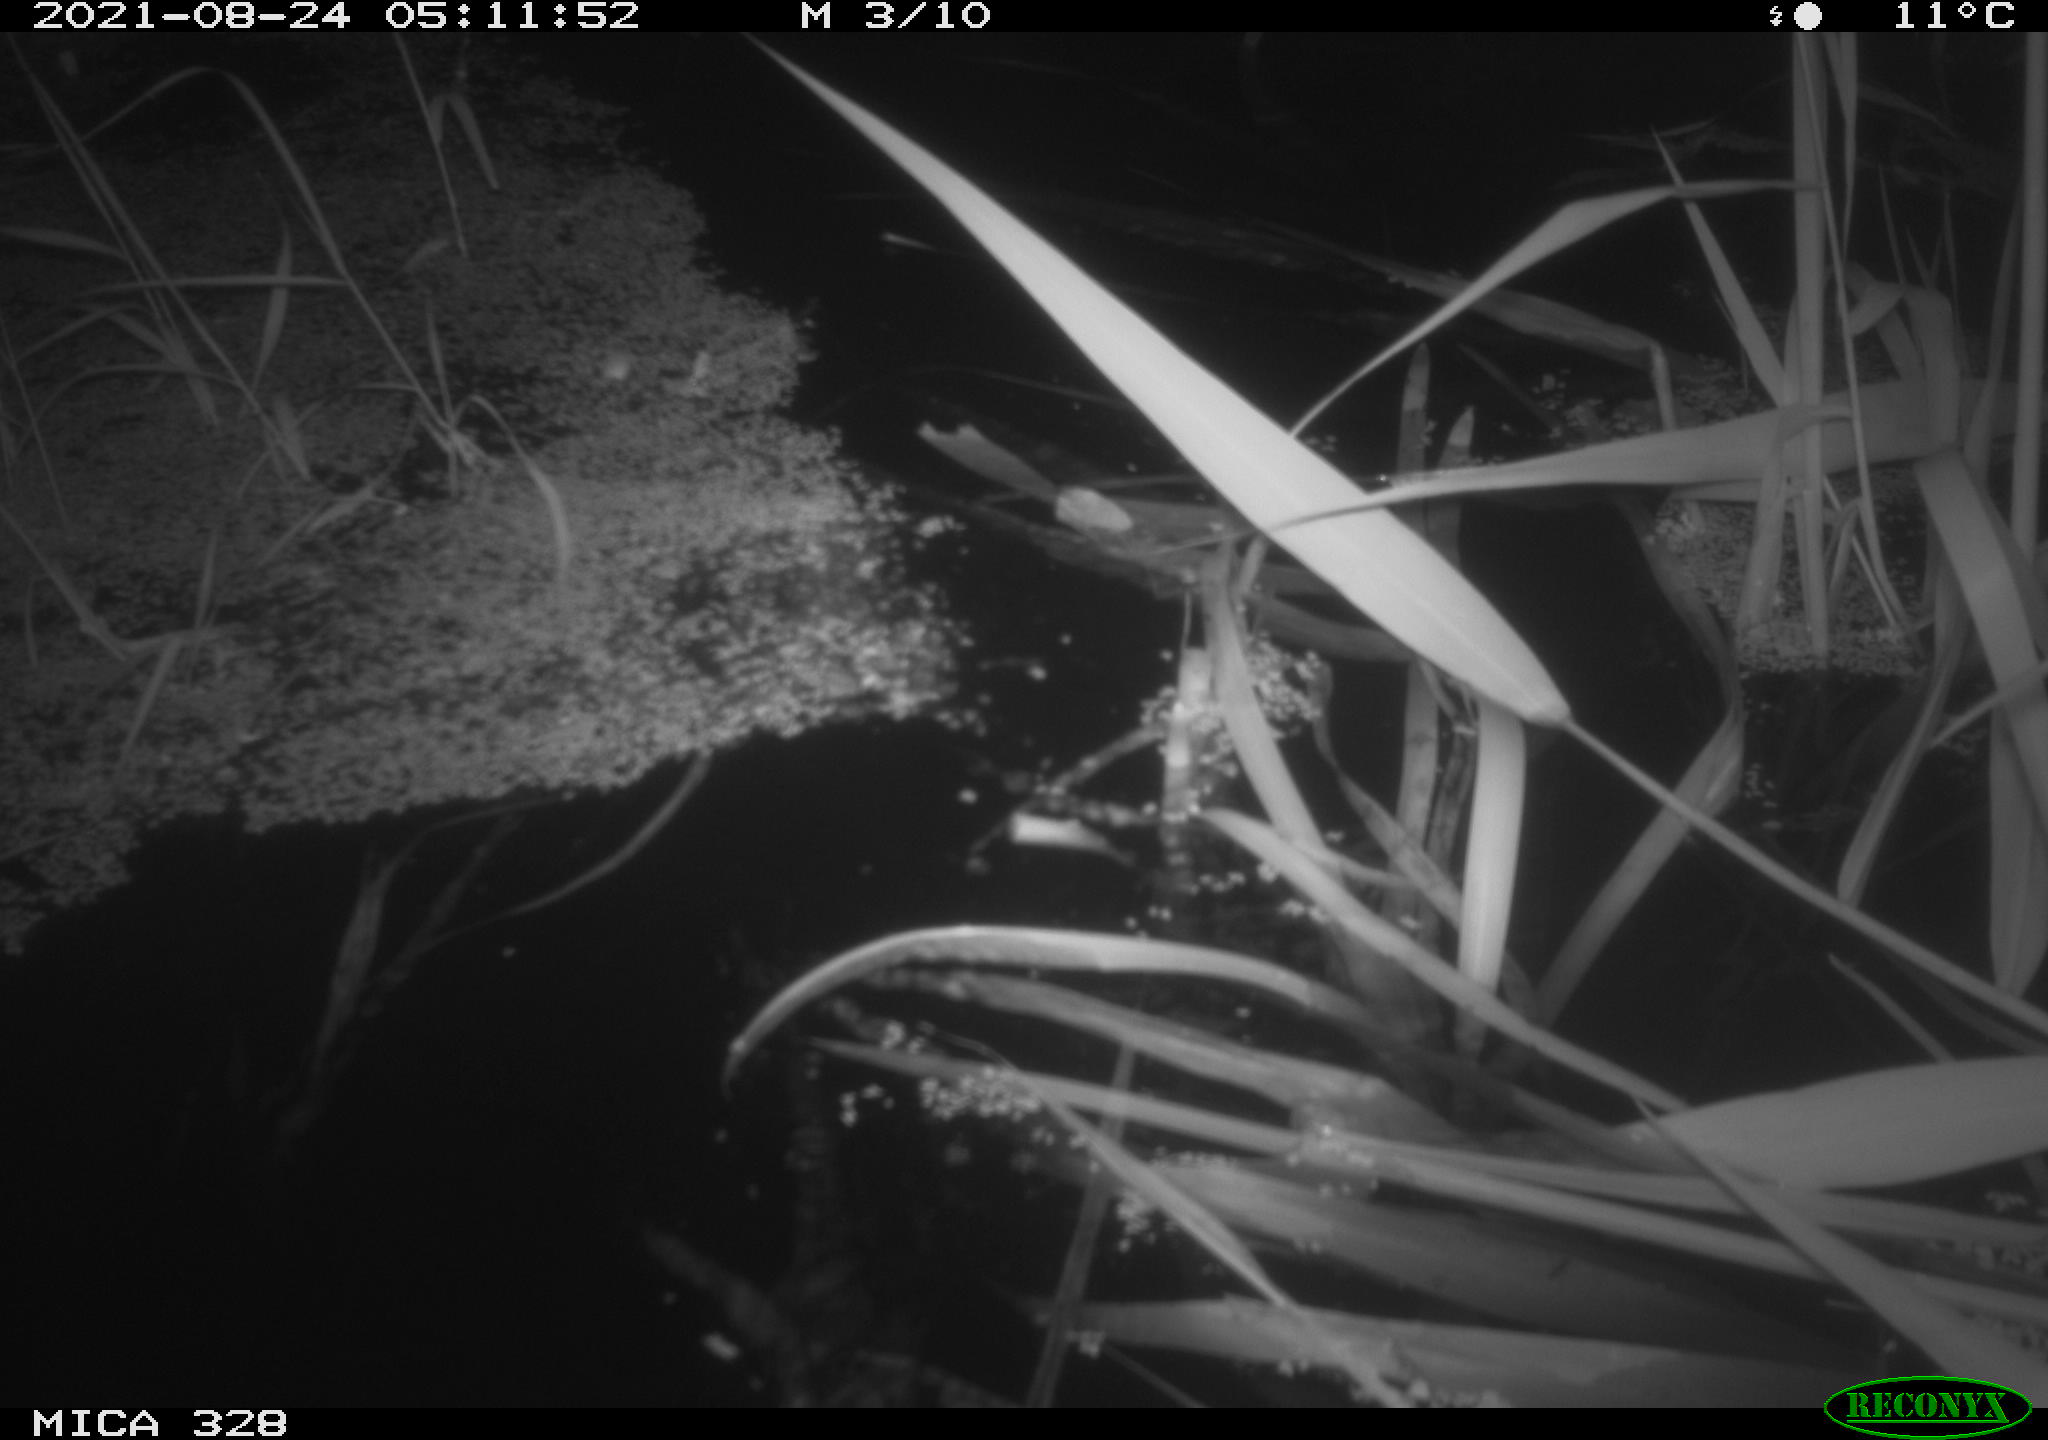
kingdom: Animalia
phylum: Chordata
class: Mammalia
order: Rodentia
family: Cricetidae
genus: Ondatra
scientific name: Ondatra zibethicus
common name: Muskrat
